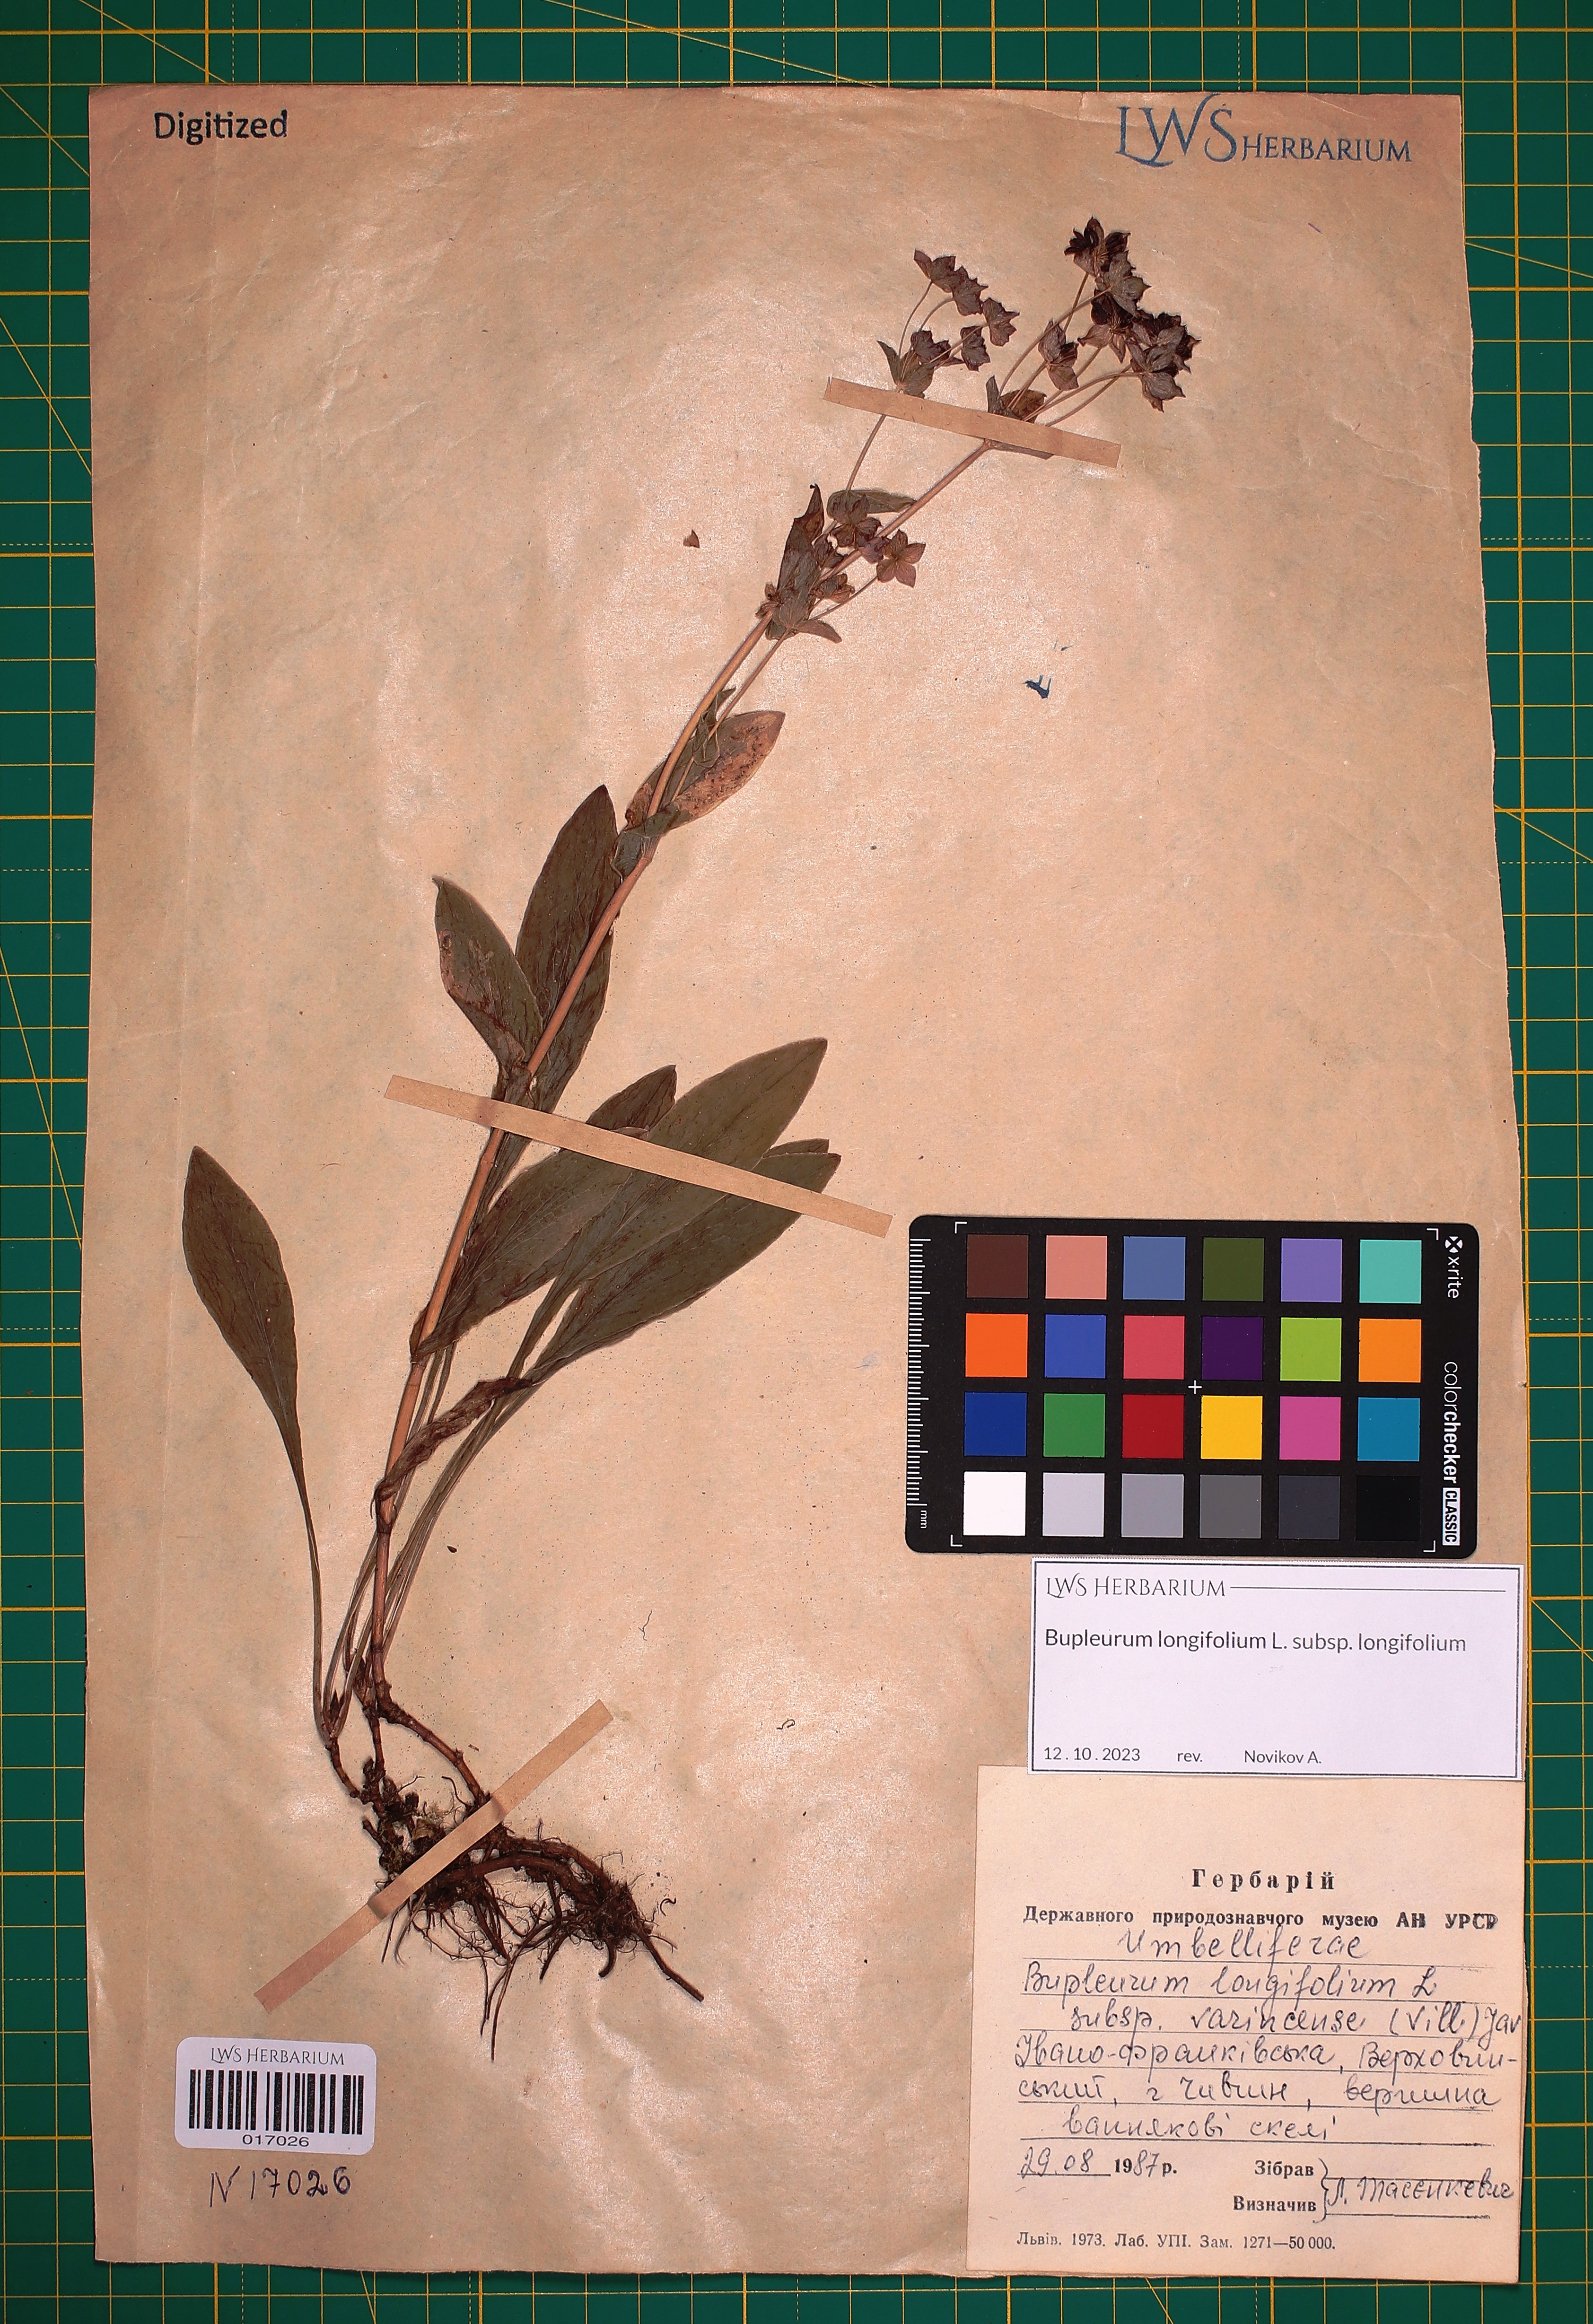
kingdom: Plantae
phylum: Tracheophyta
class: Magnoliopsida
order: Apiales
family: Apiaceae
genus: Bupleurum
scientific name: Bupleurum longifolium
